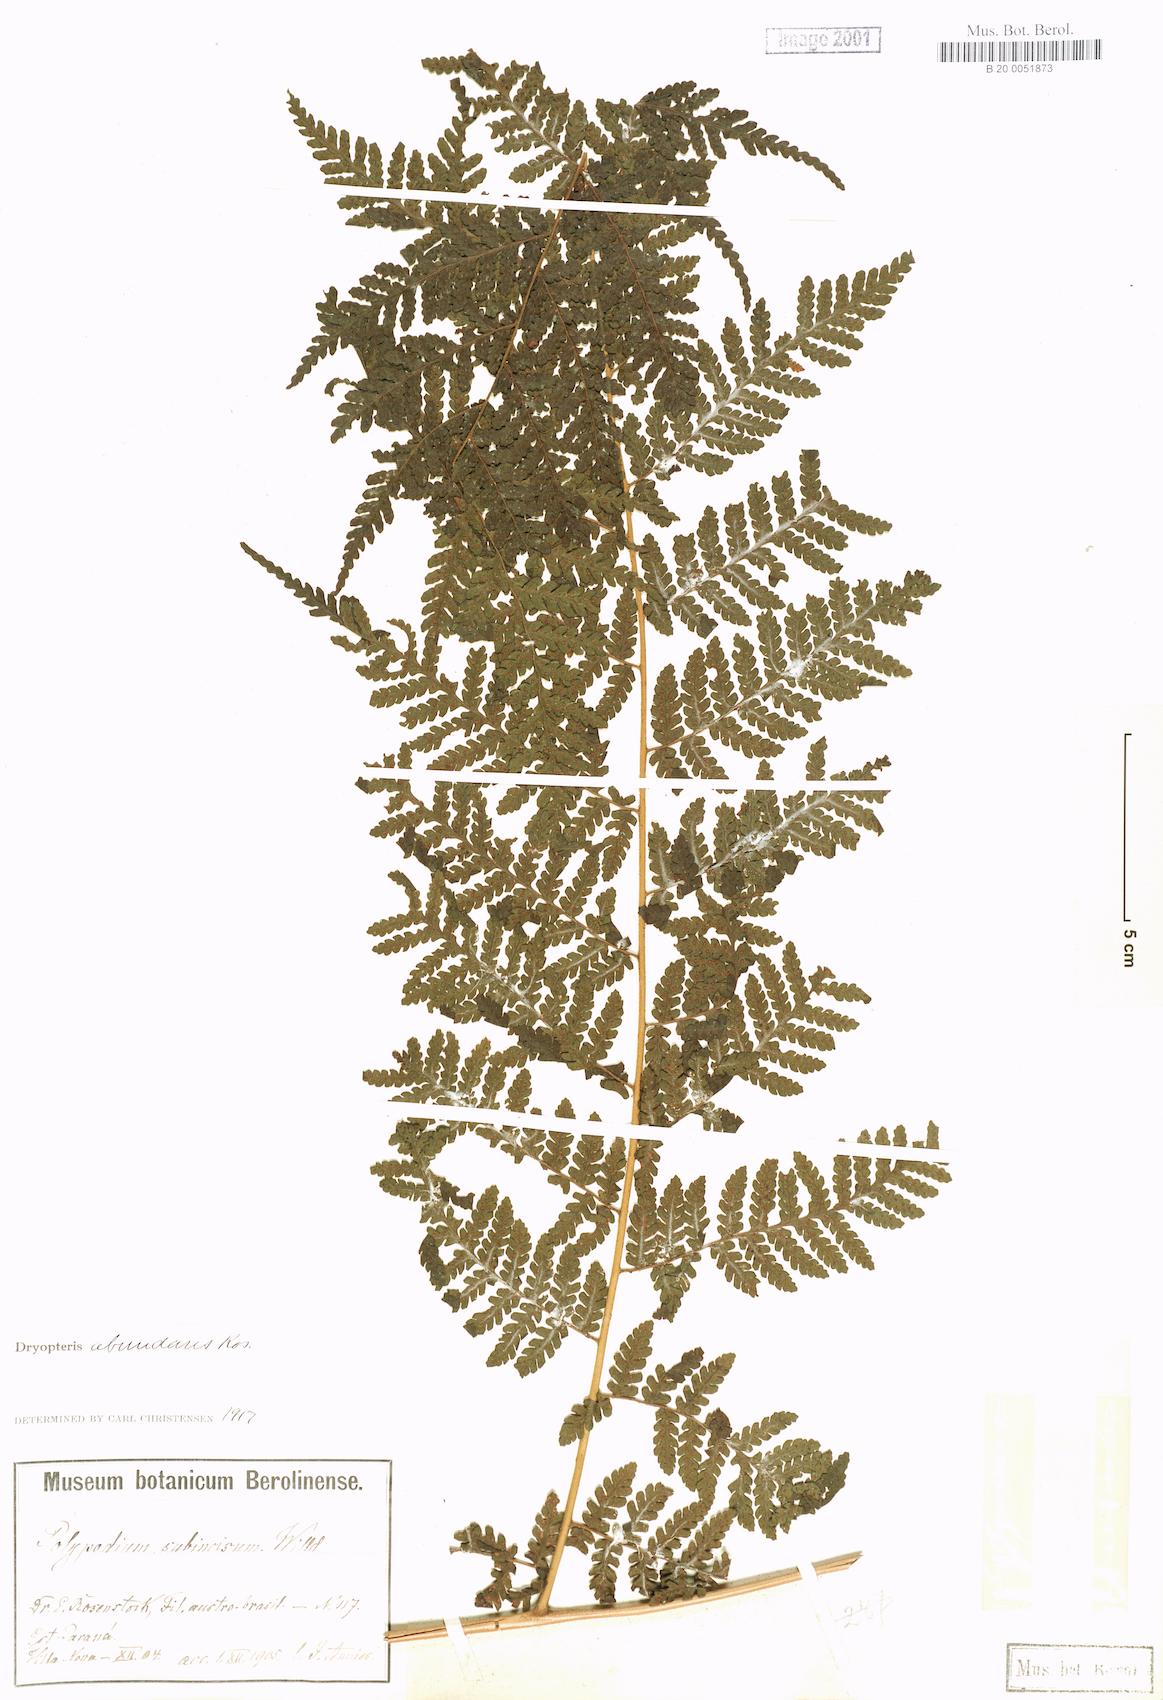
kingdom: Plantae
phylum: Tracheophyta
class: Polypodiopsida
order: Polypodiales
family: Dryopteridaceae
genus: Megalastrum
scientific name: Megalastrum abundans
